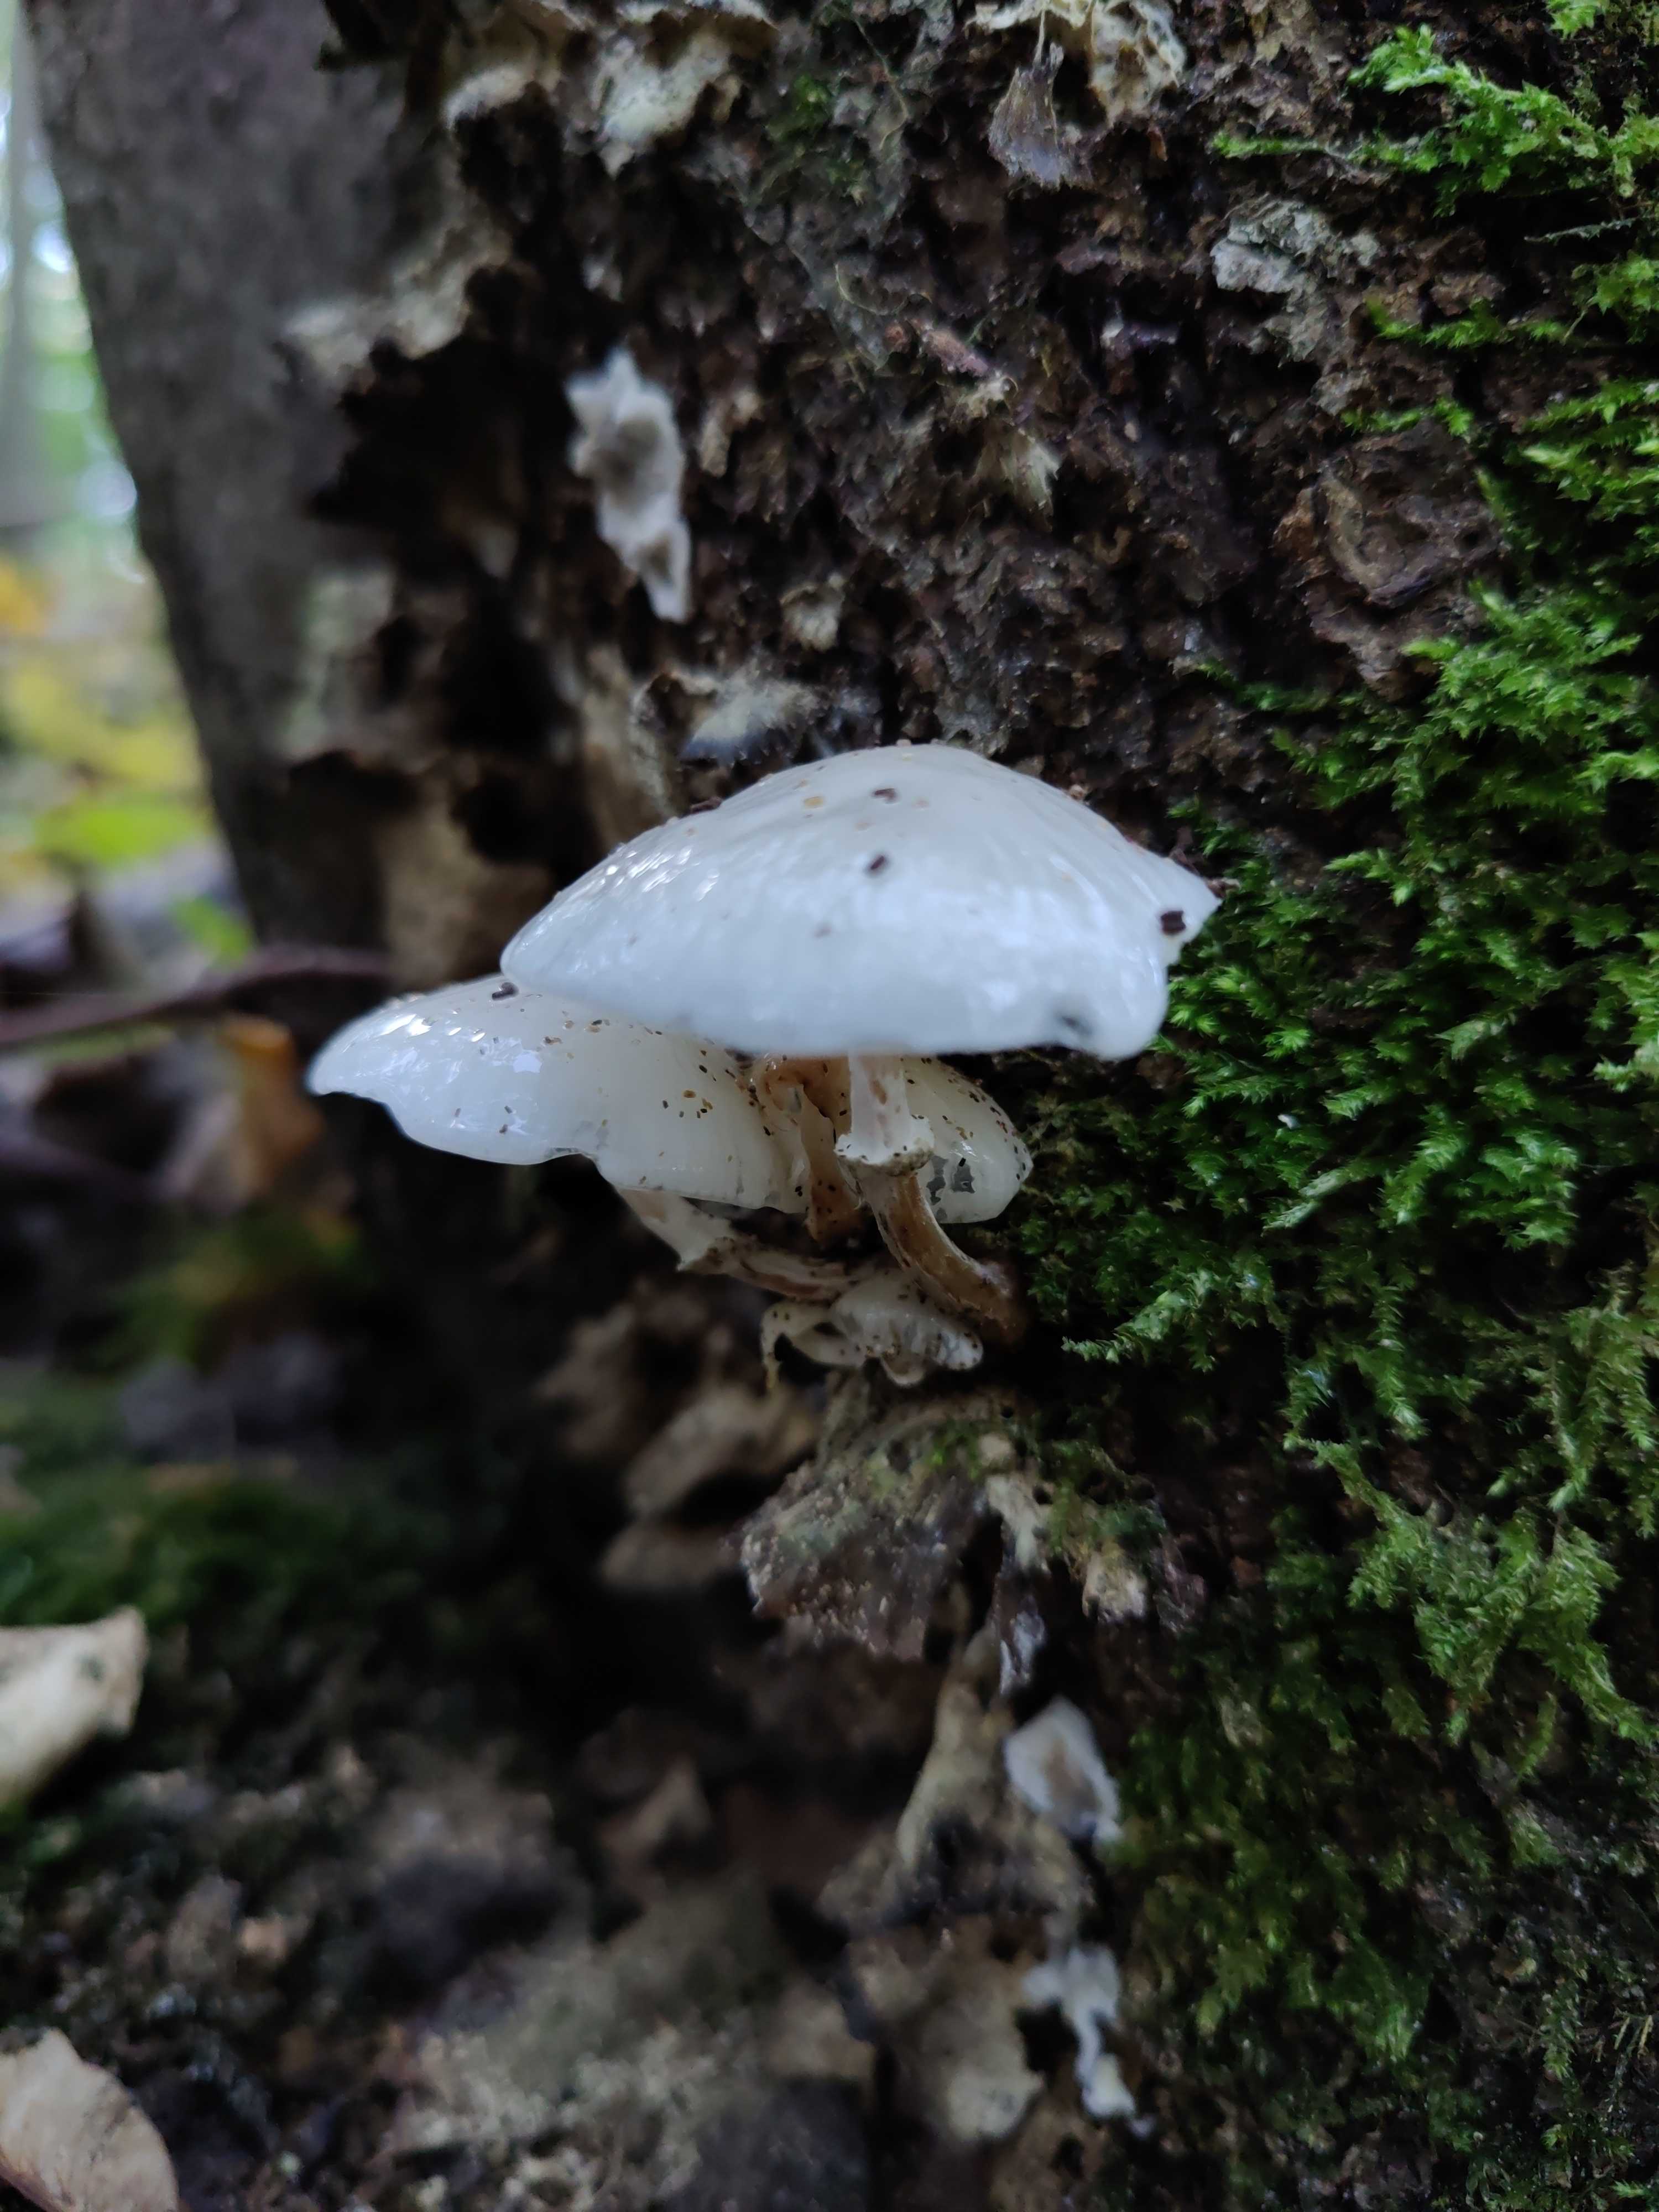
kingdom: Fungi
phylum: Basidiomycota
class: Agaricomycetes
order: Agaricales
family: Physalacriaceae
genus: Mucidula
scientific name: Mucidula mucida
